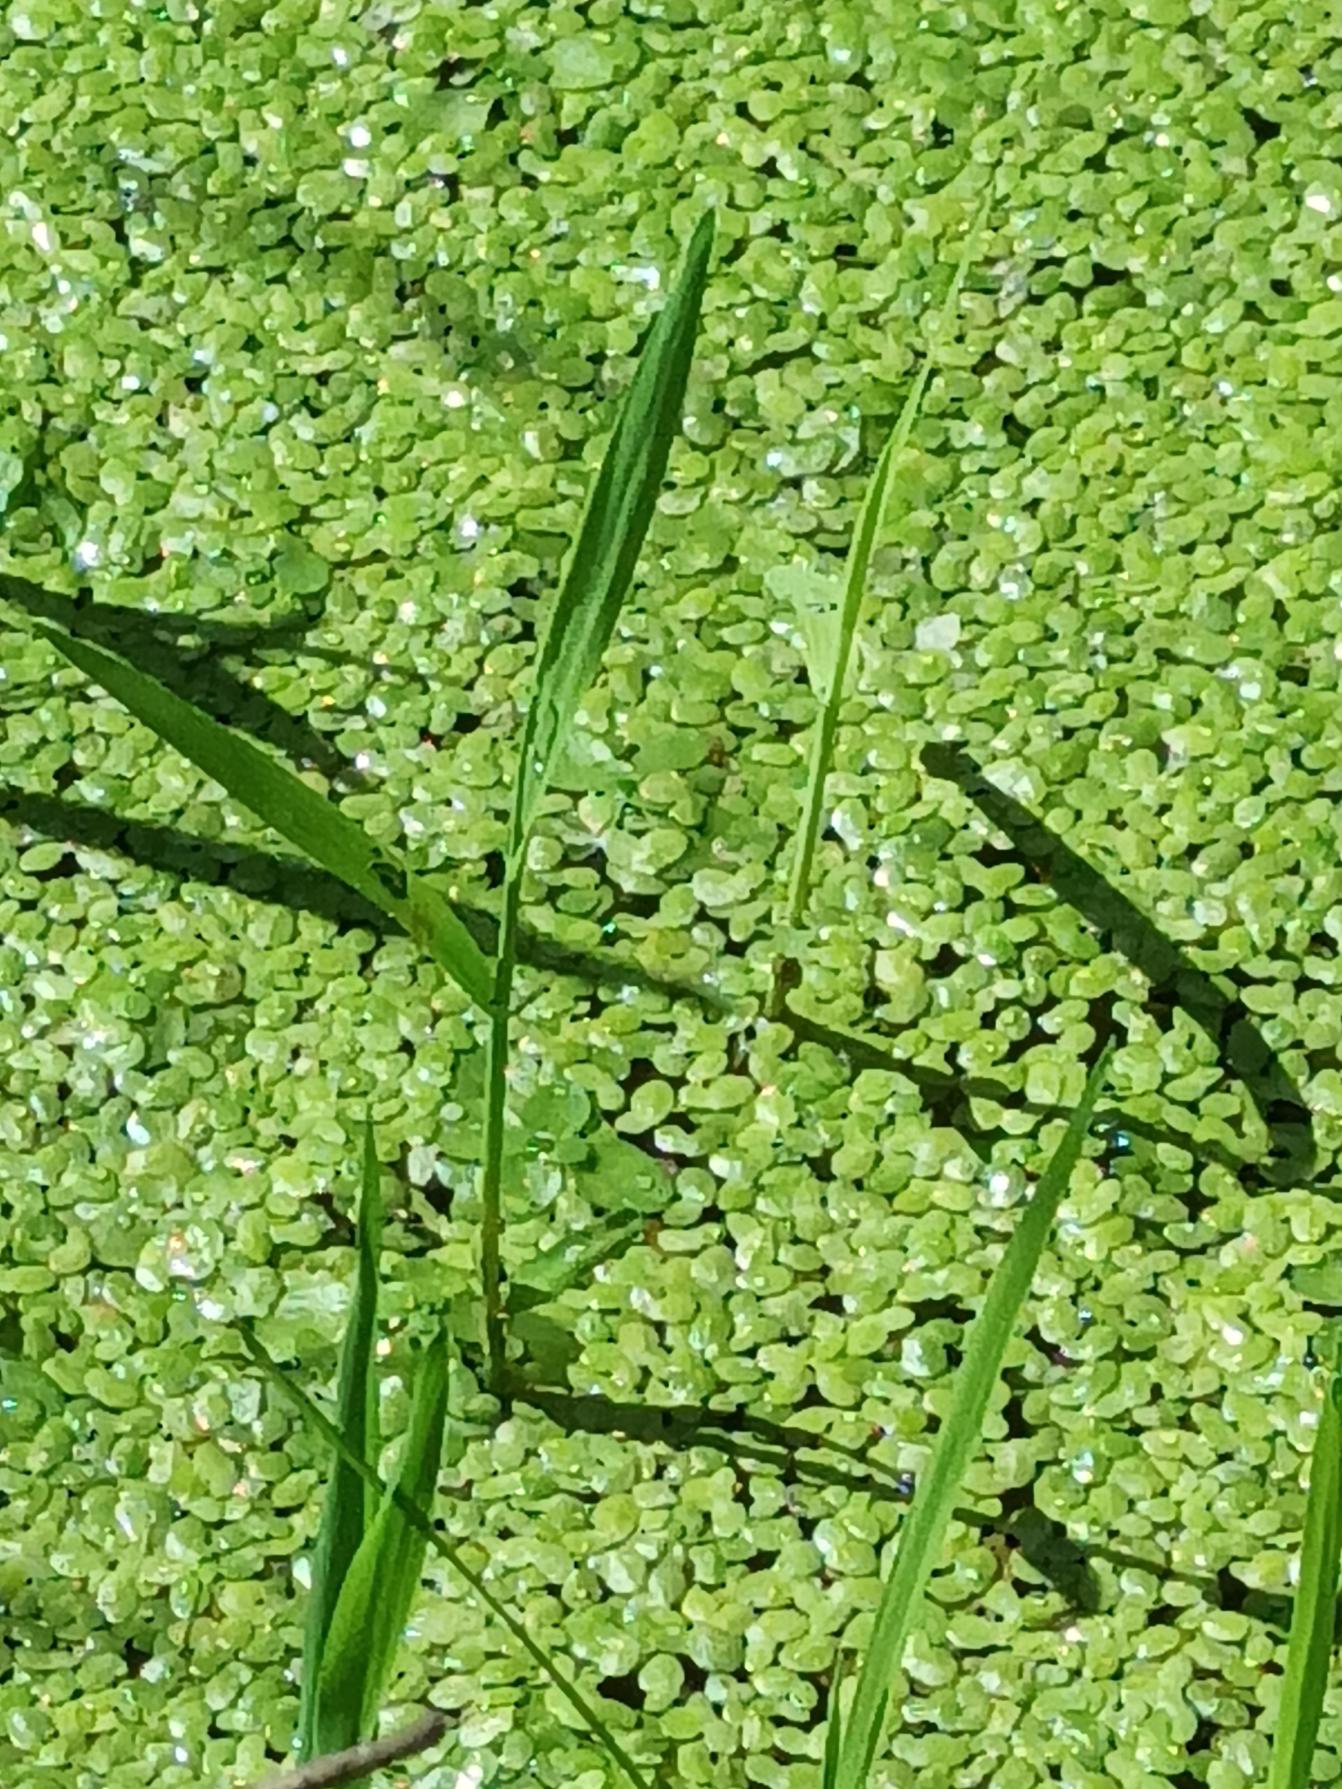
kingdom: Plantae
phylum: Tracheophyta
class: Liliopsida
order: Alismatales
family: Araceae
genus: Lemna
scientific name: Lemna minor
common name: Liden andemad
